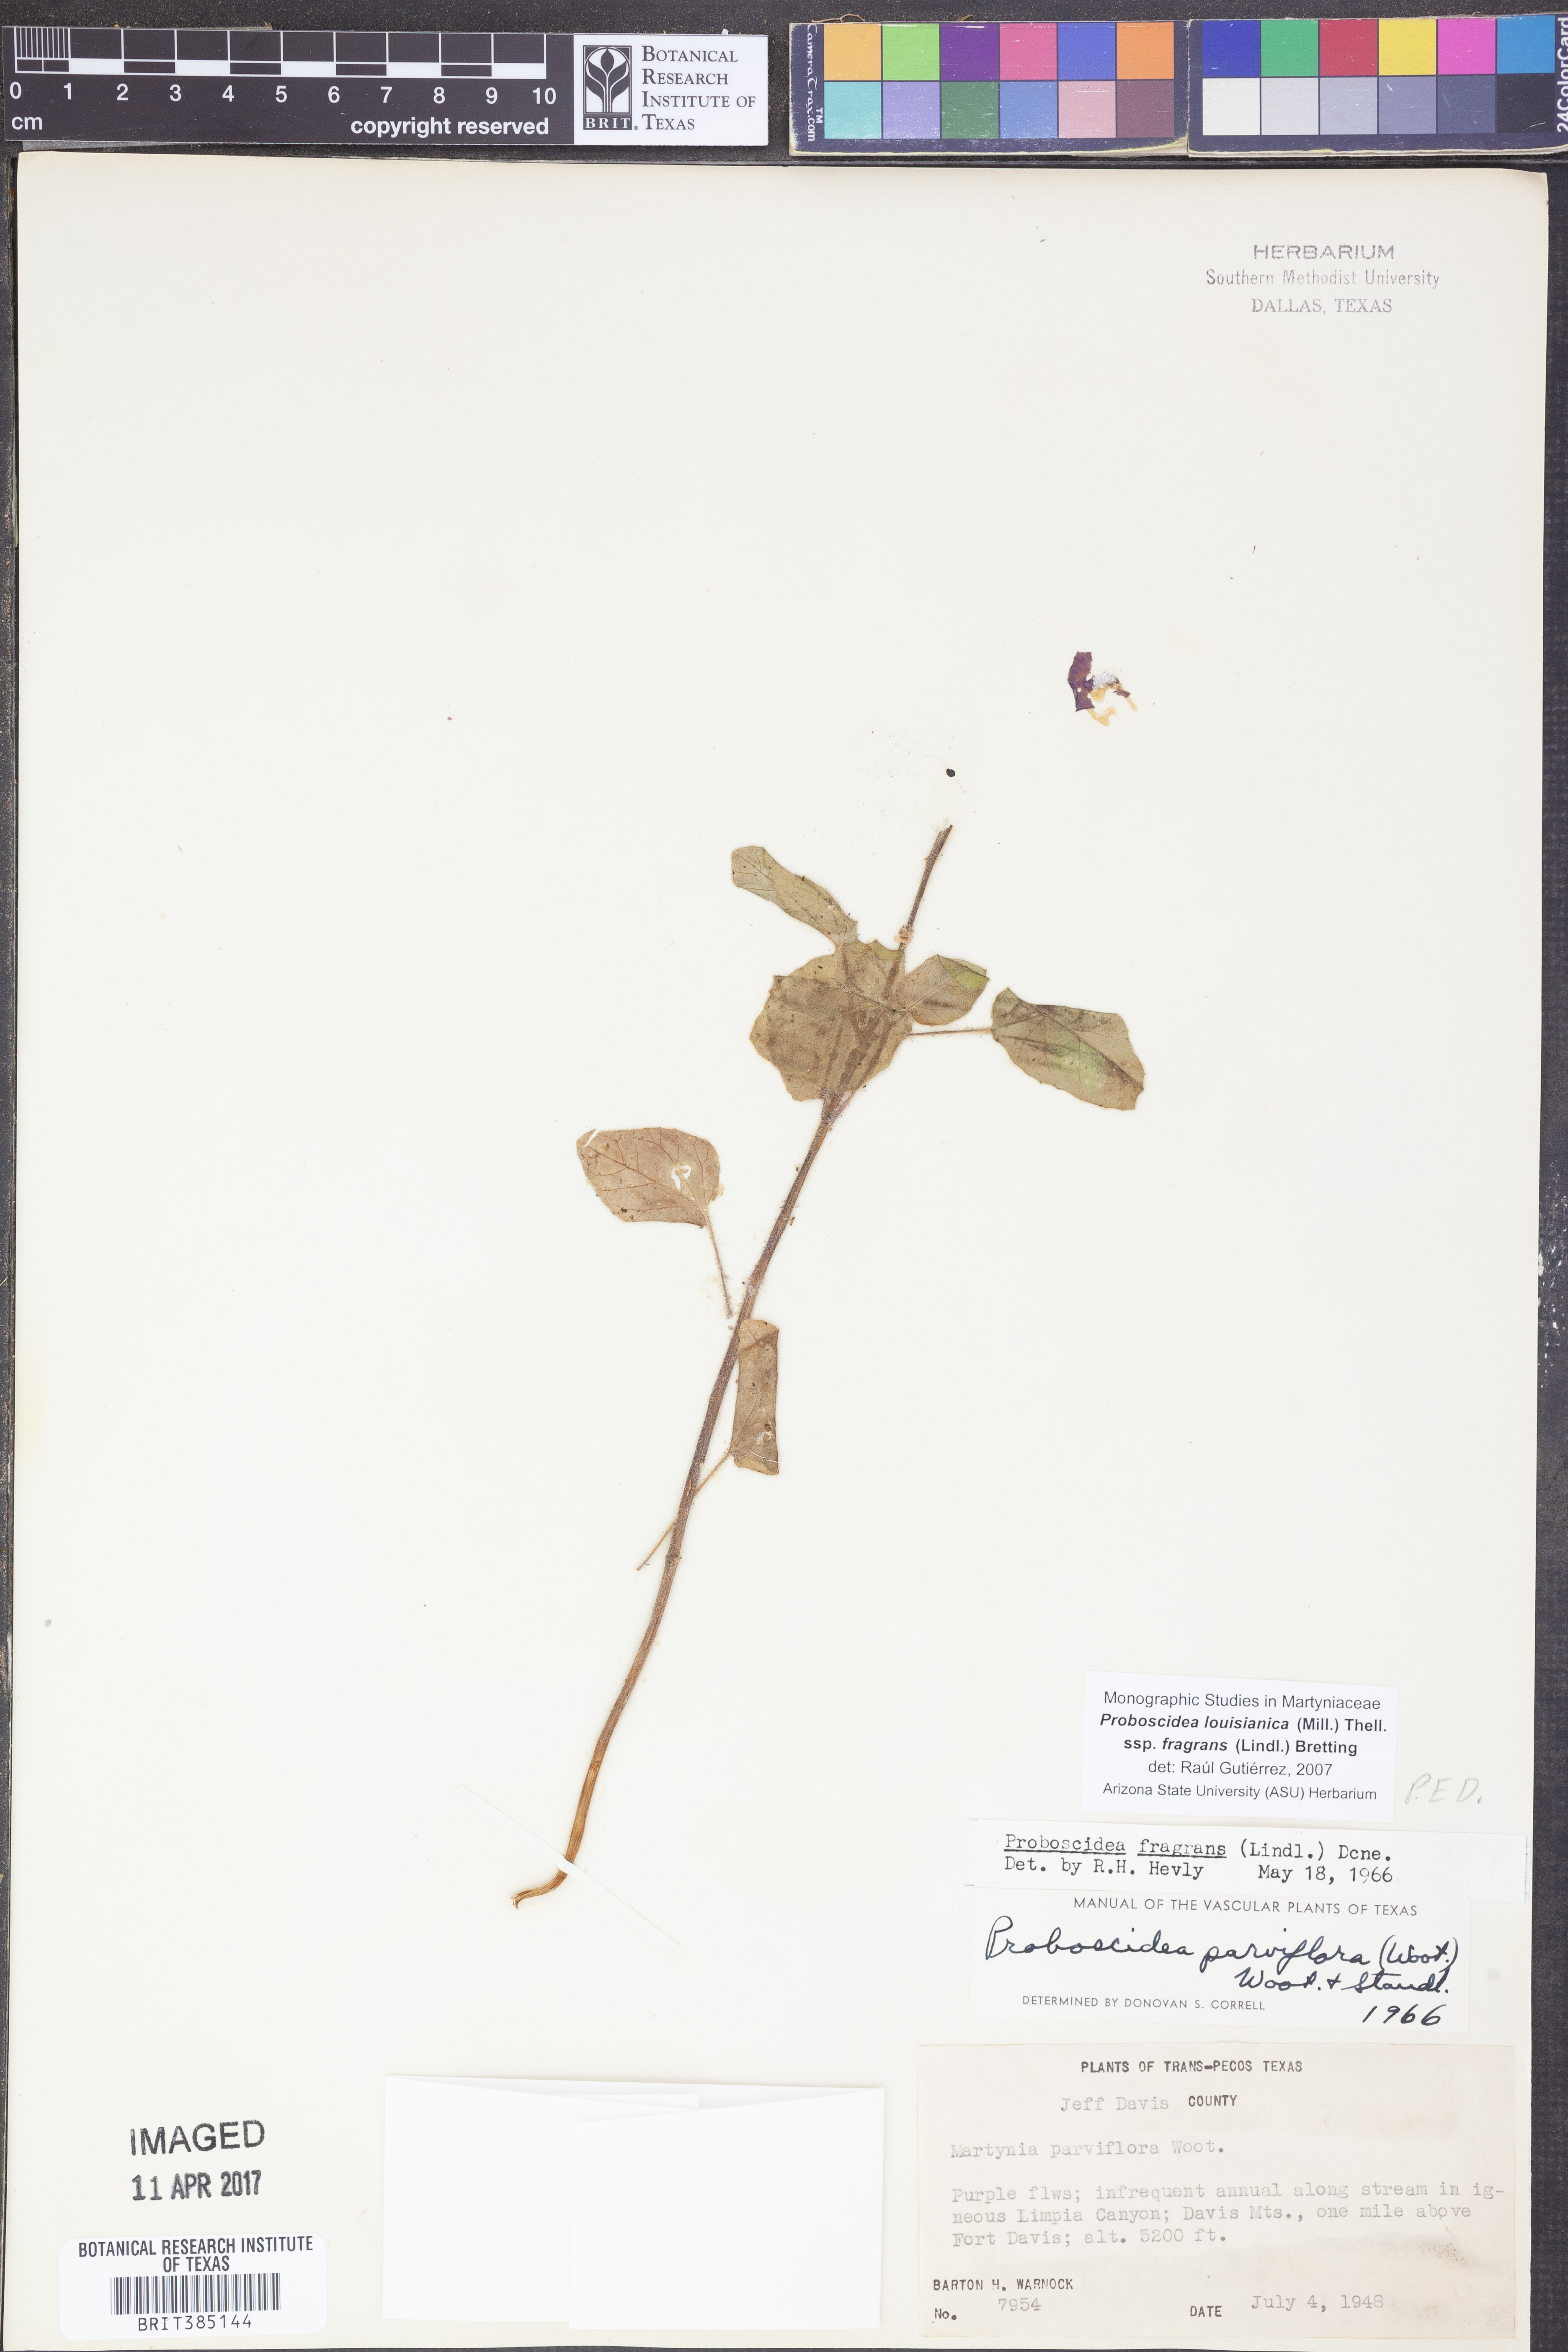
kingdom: Plantae
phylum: Tracheophyta
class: Magnoliopsida
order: Lamiales
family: Martyniaceae
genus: Proboscidea
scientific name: Proboscidea louisianica
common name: Elephant tusks
